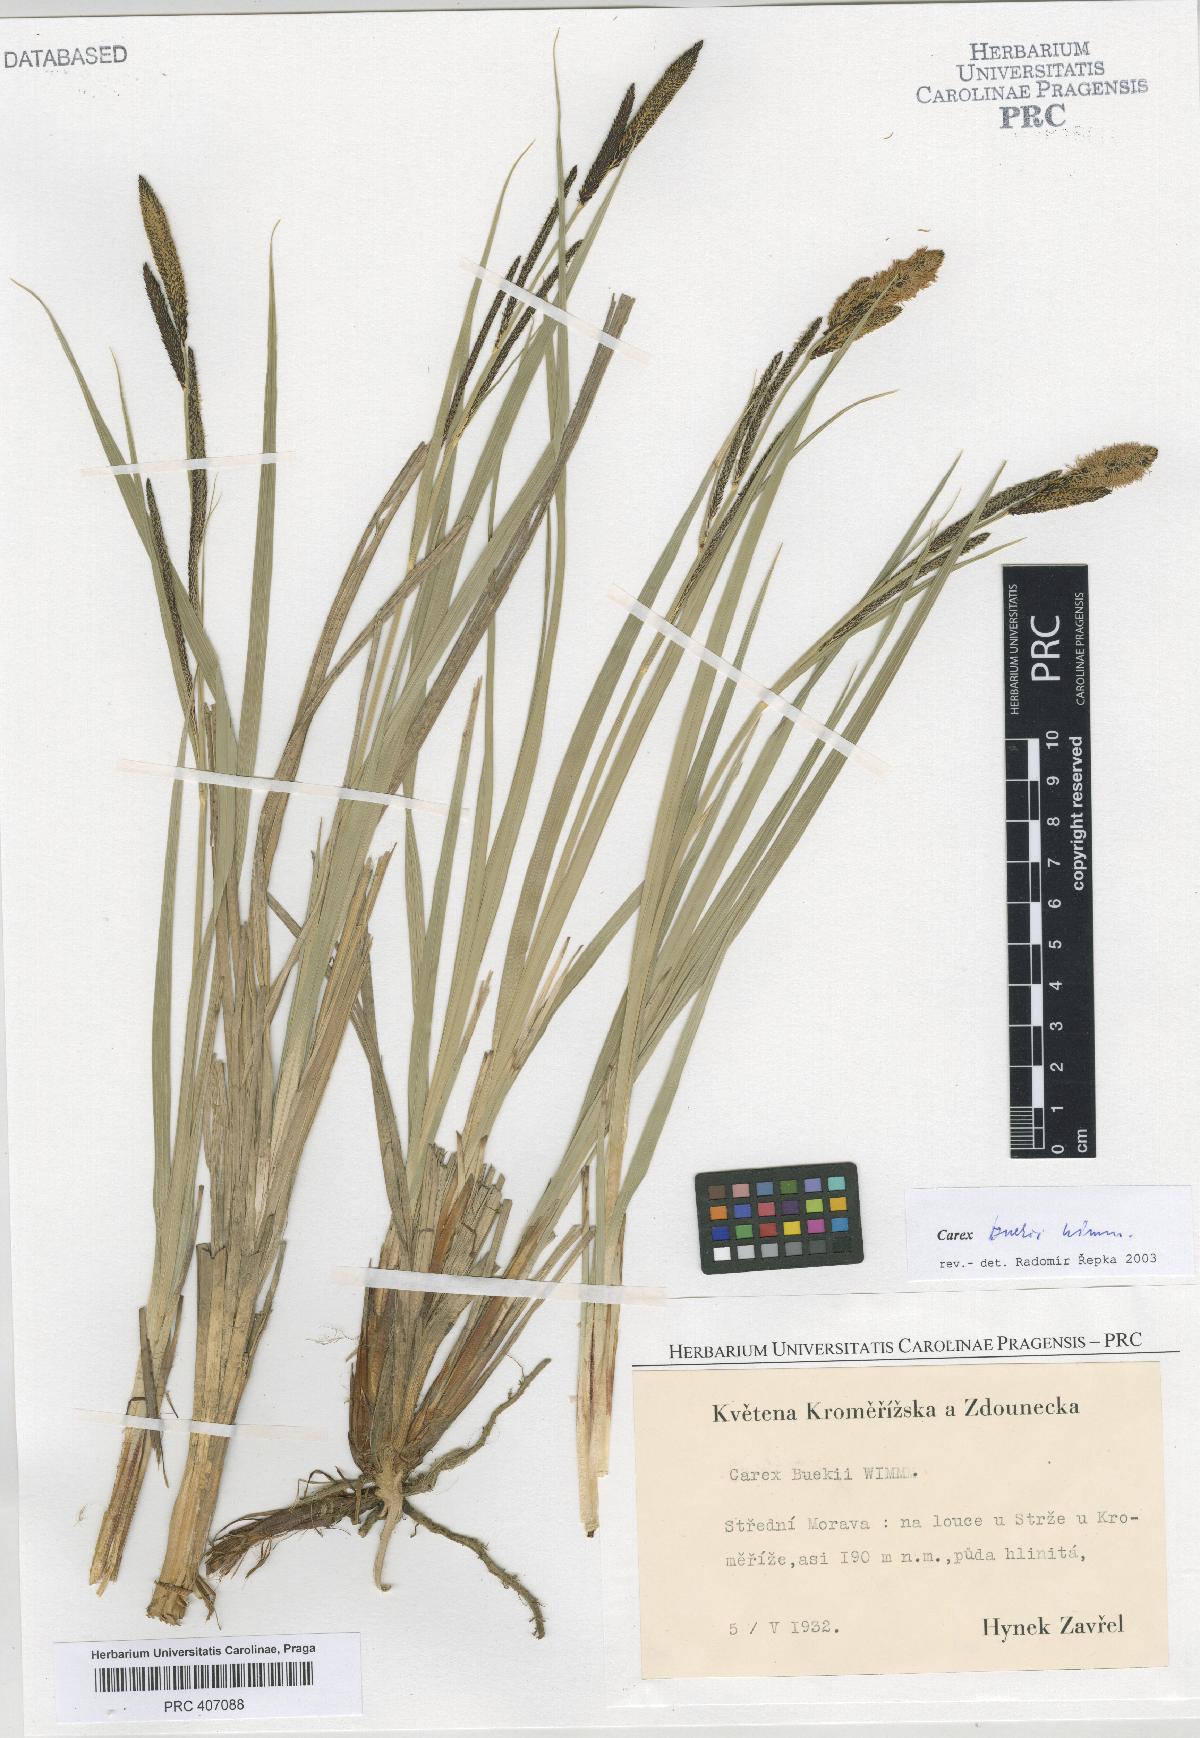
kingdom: Plantae
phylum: Tracheophyta
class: Liliopsida
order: Poales
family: Cyperaceae
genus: Carex
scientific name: Carex buekii
